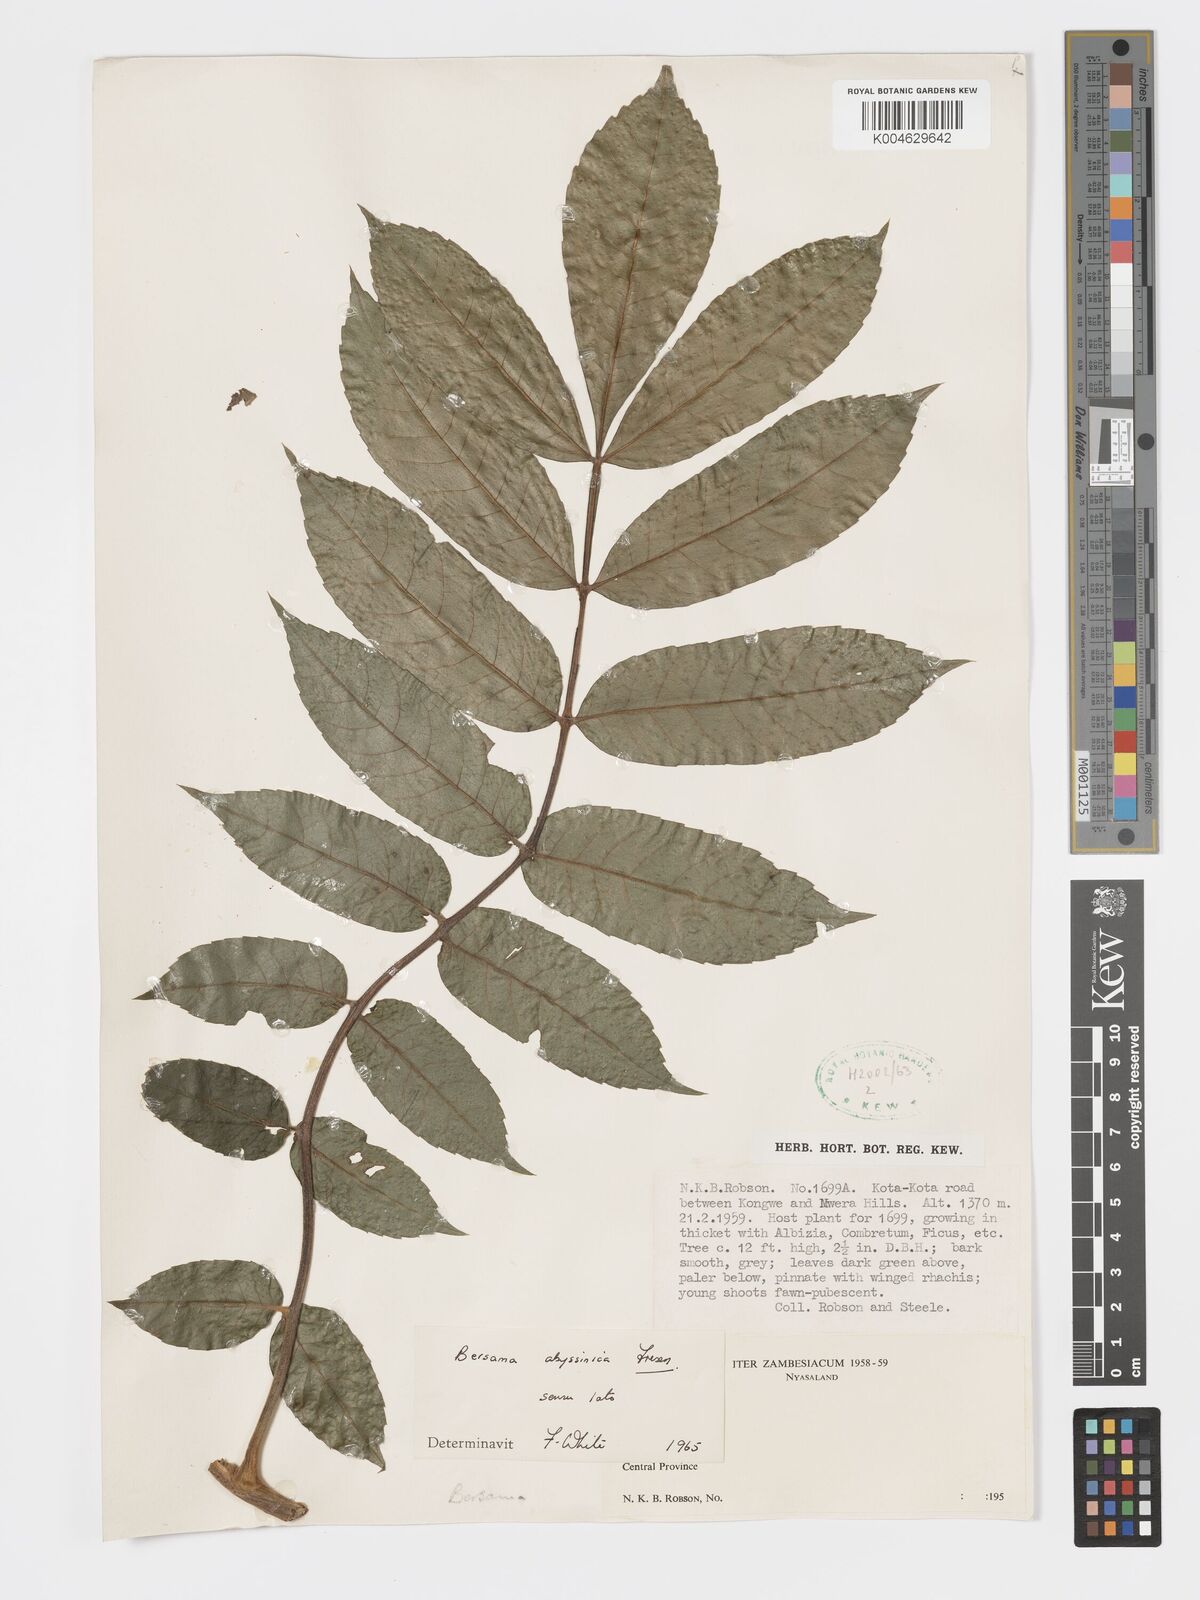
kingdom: Plantae
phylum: Tracheophyta
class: Magnoliopsida
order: Geraniales
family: Melianthaceae
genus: Bersama
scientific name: Bersama
